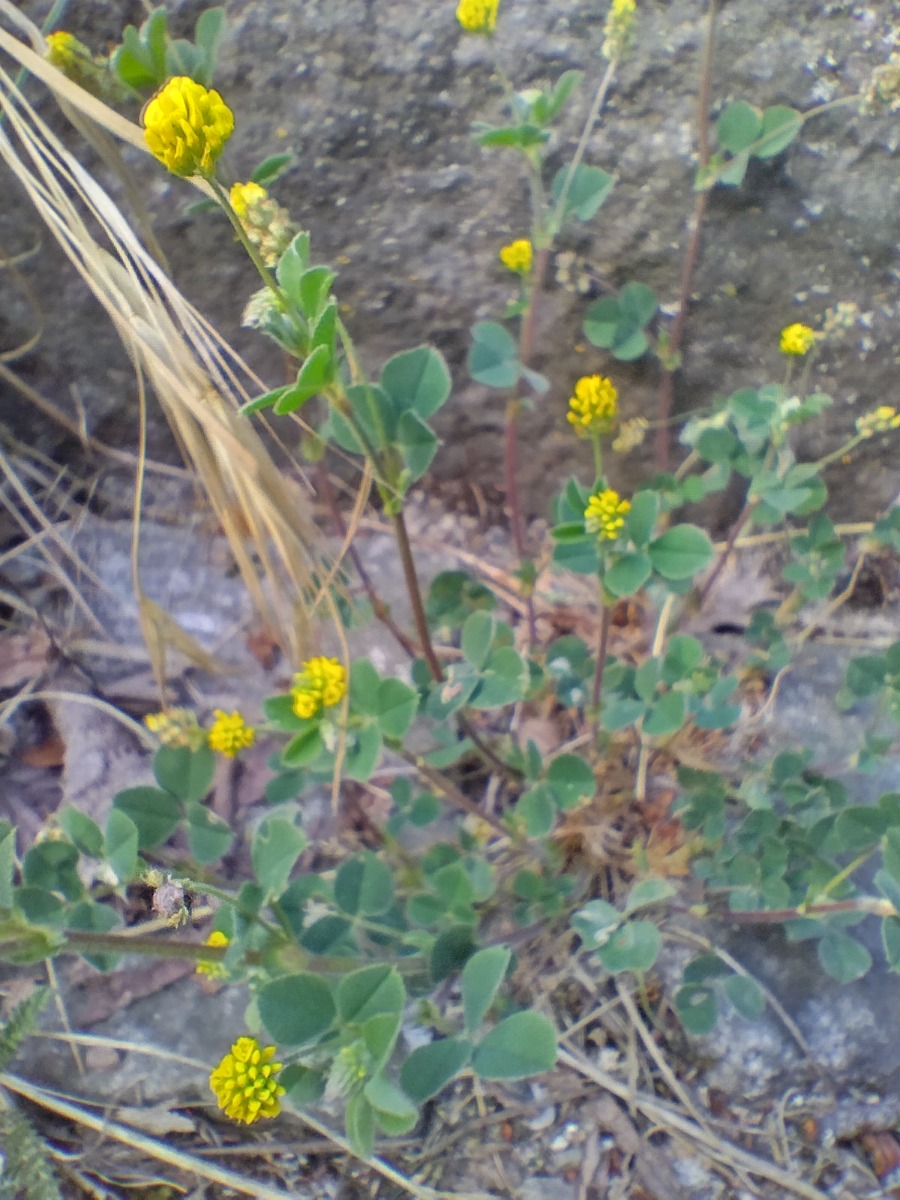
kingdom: Plantae
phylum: Tracheophyta
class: Magnoliopsida
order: Fabales
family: Fabaceae
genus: Medicago
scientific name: Medicago lupulina
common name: Humle-sneglebælg
